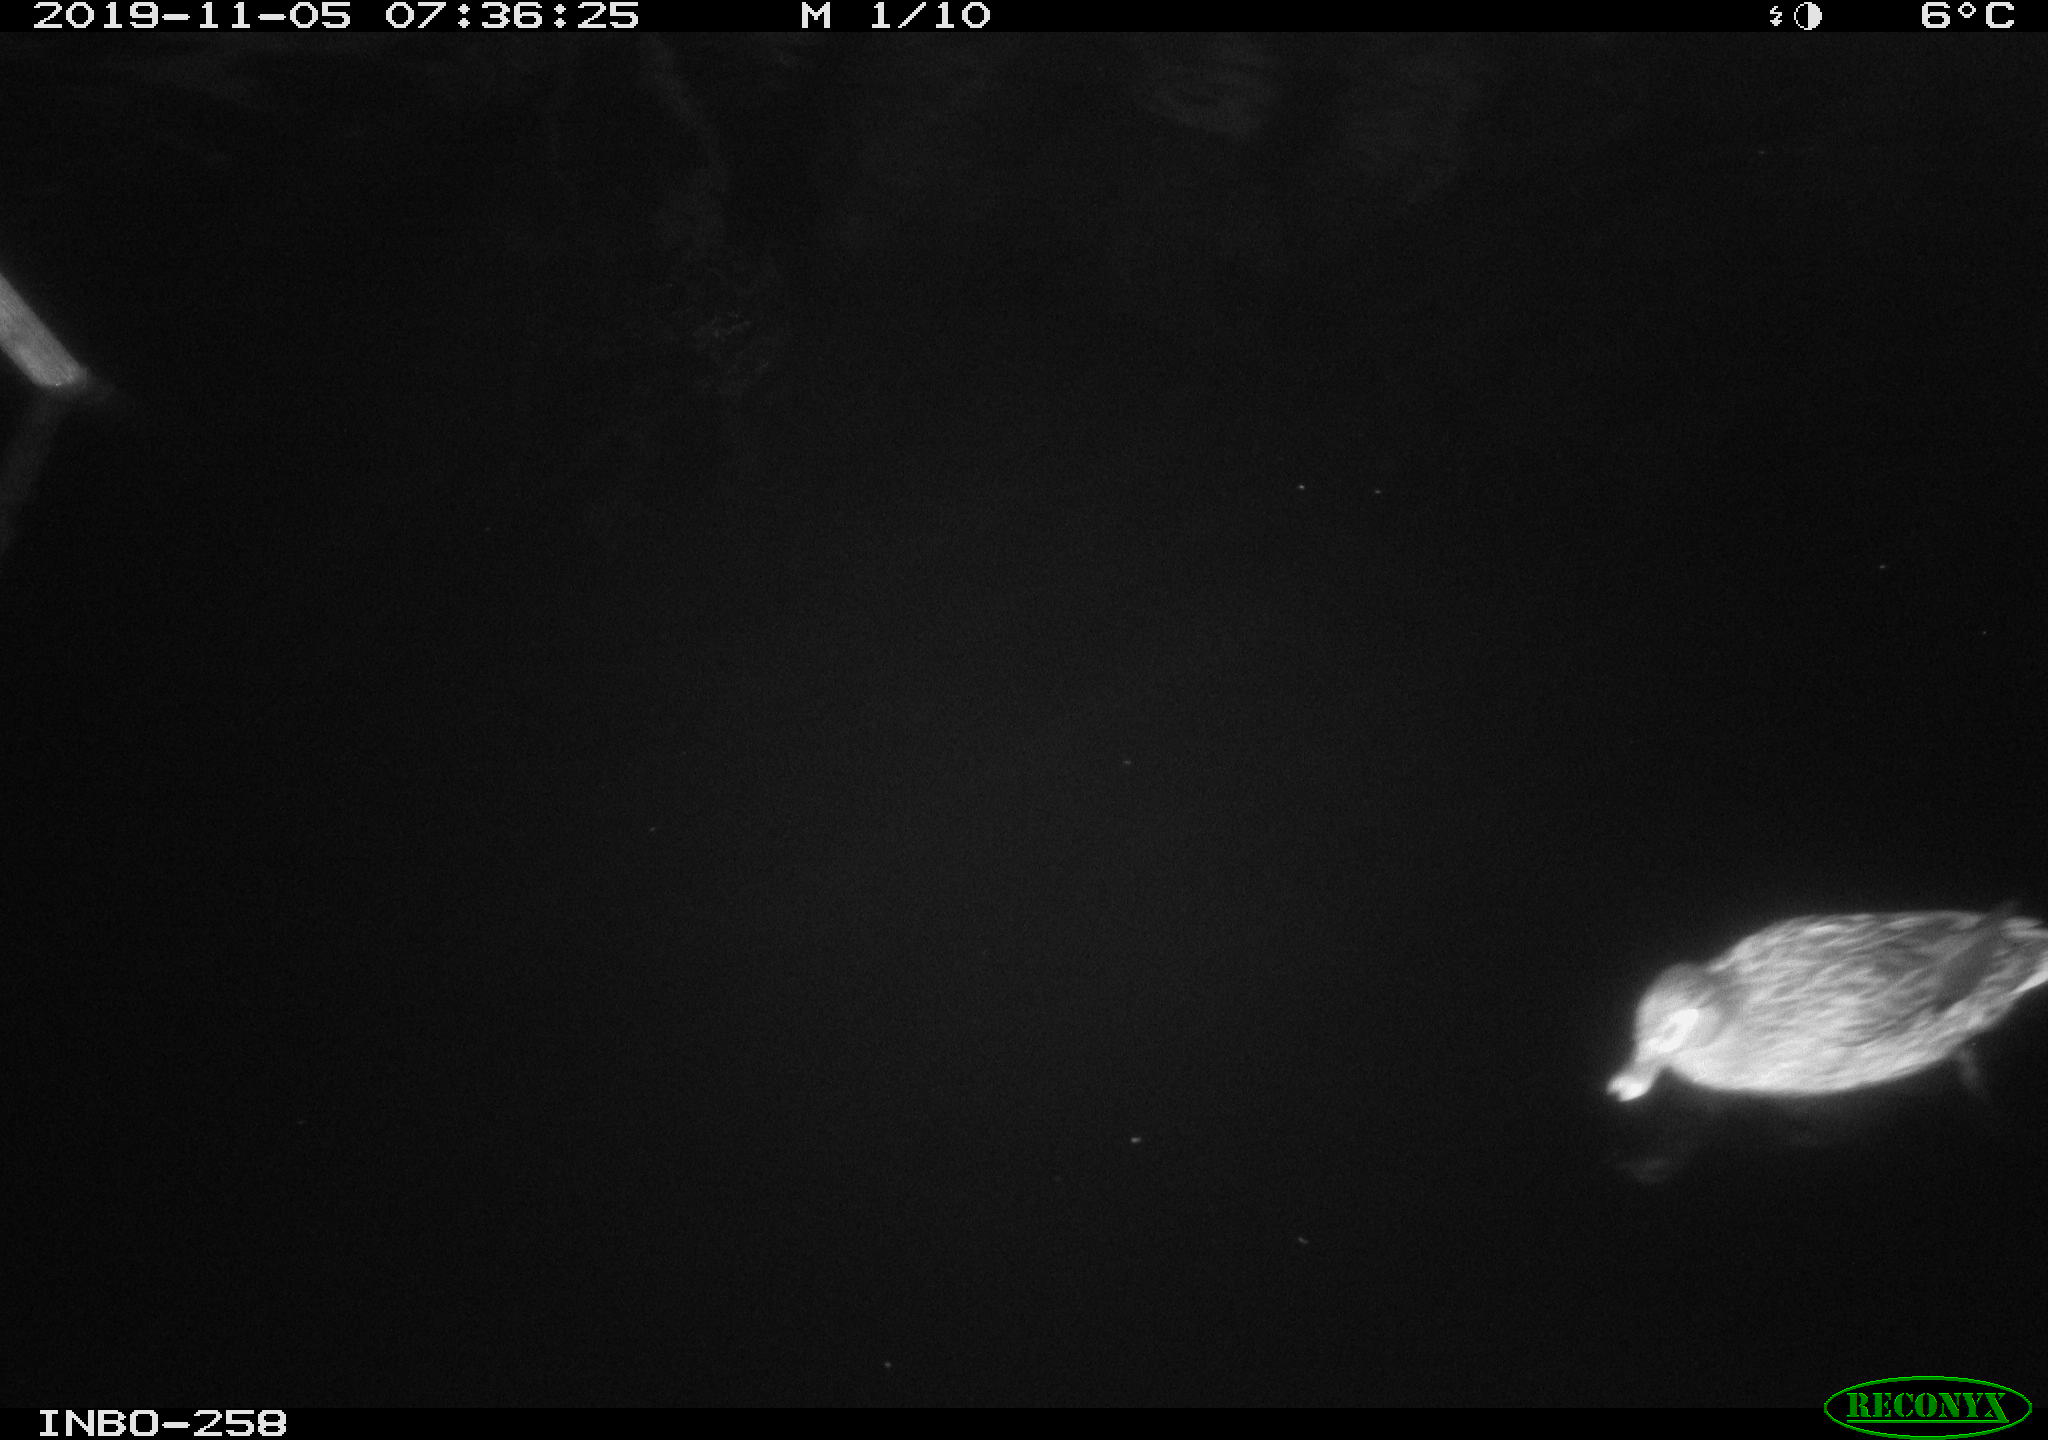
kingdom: Animalia
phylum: Chordata
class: Aves
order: Anseriformes
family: Anatidae
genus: Anas
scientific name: Anas platyrhynchos
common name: Mallard
